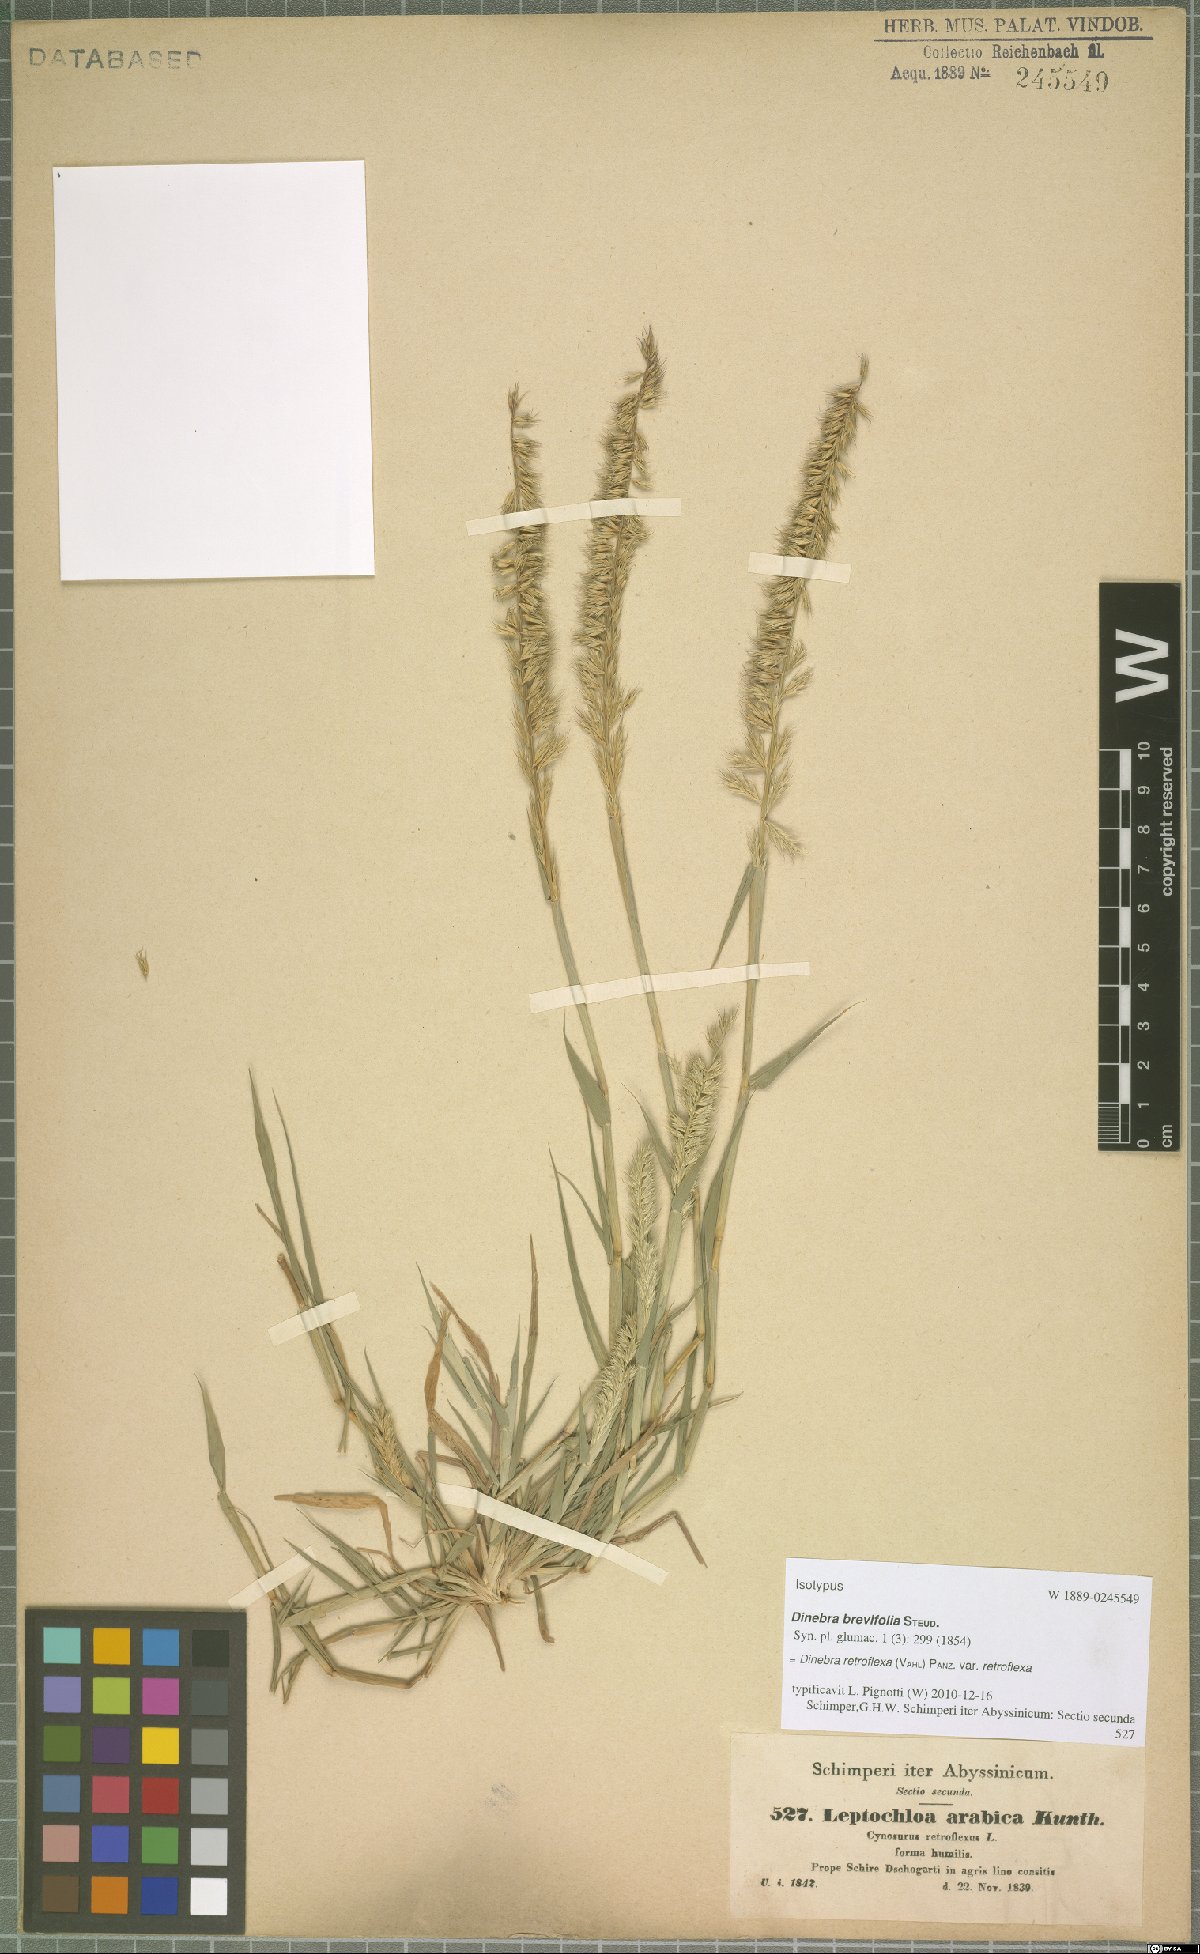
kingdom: Plantae
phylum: Tracheophyta
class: Liliopsida
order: Poales
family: Poaceae
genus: Dinebra
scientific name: Dinebra retroflexa
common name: Viper grass
